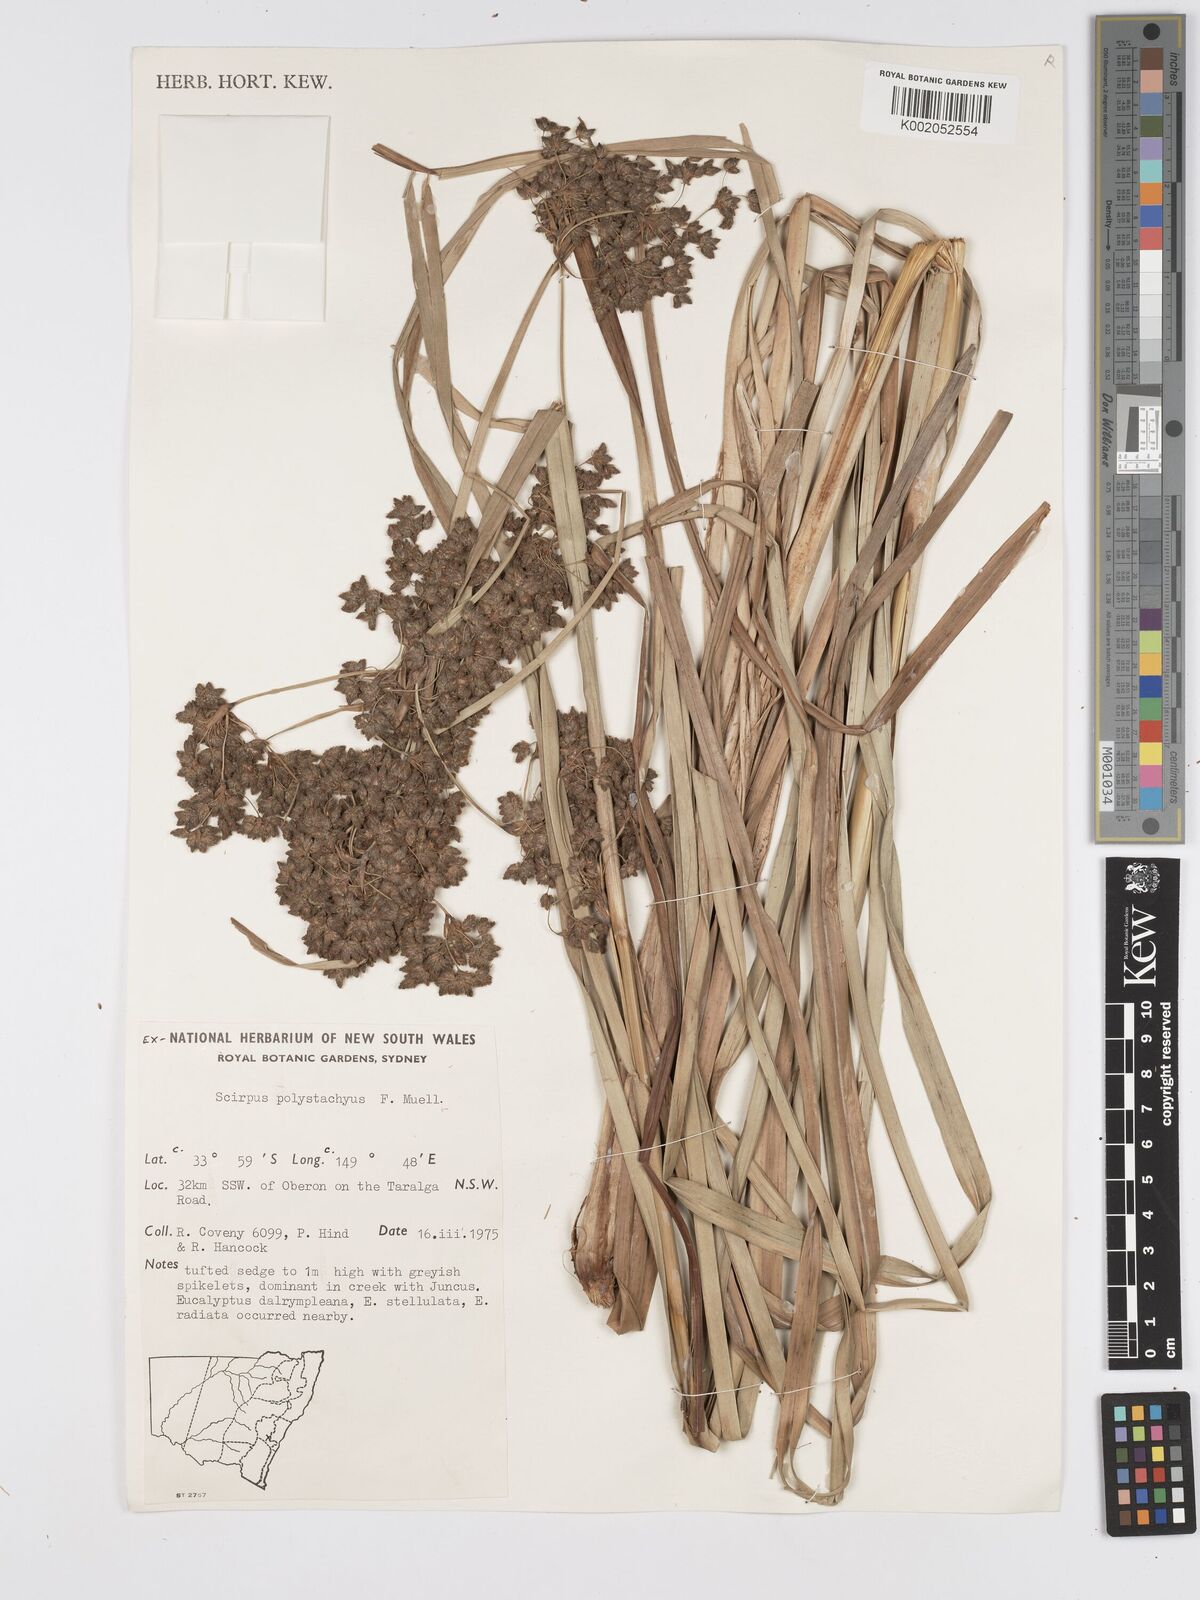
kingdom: Plantae
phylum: Tracheophyta
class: Liliopsida
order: Poales
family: Cyperaceae
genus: Scirpus
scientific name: Scirpus polystachyus
